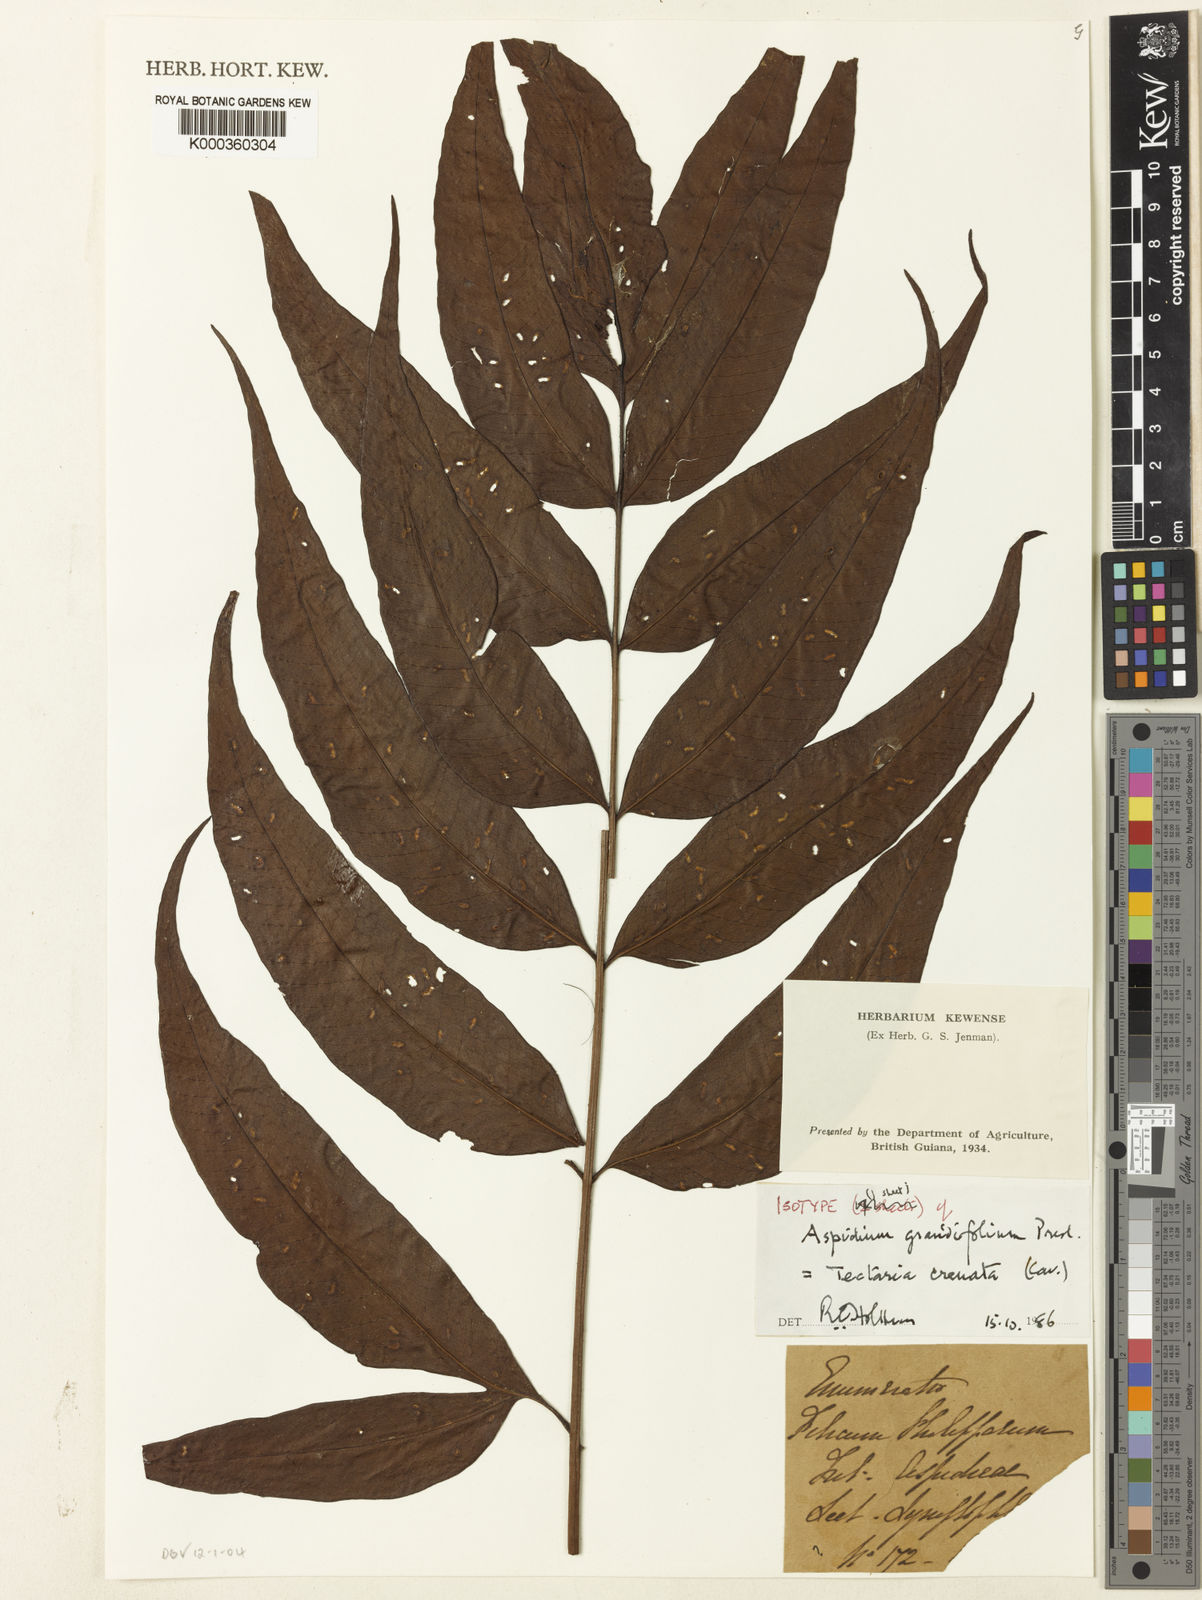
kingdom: Plantae
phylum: Tracheophyta
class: Polypodiopsida
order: Polypodiales
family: Tectariaceae
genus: Tectaria
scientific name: Tectaria crenata
